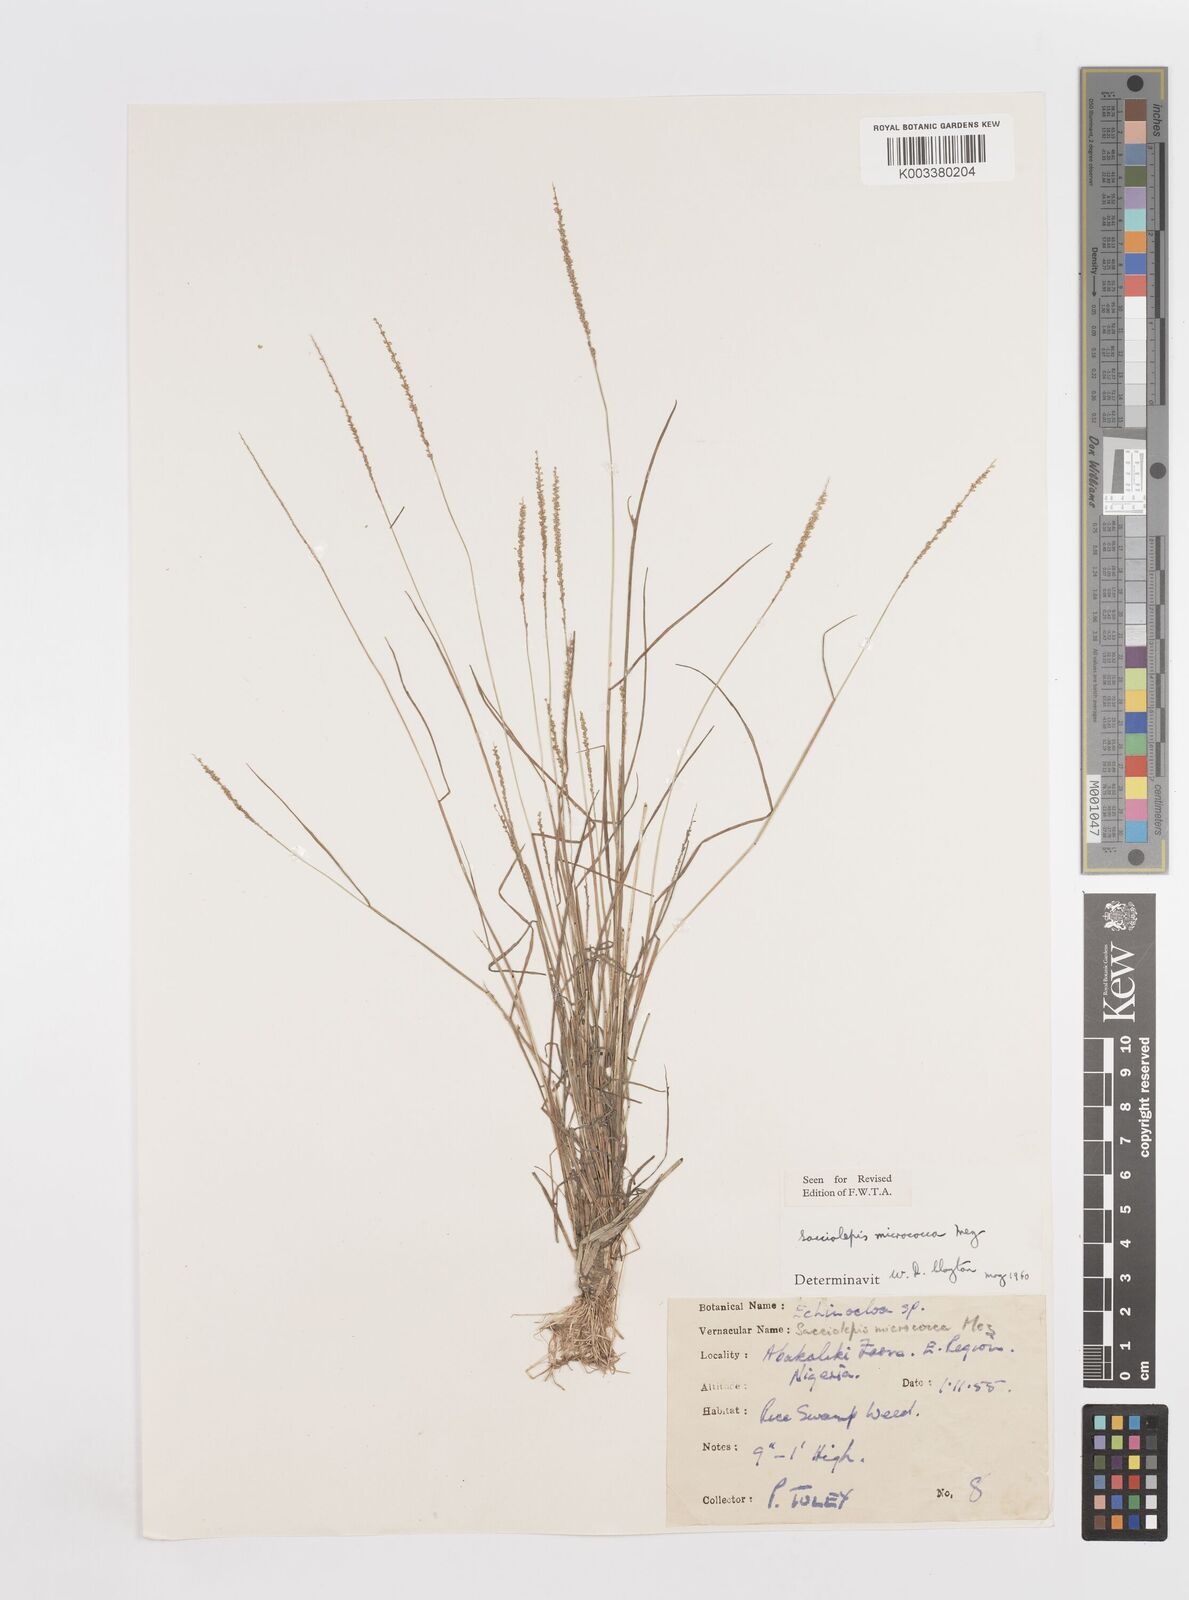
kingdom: Plantae
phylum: Tracheophyta
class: Liliopsida
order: Poales
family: Poaceae
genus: Sacciolepis
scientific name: Sacciolepis micrococca
